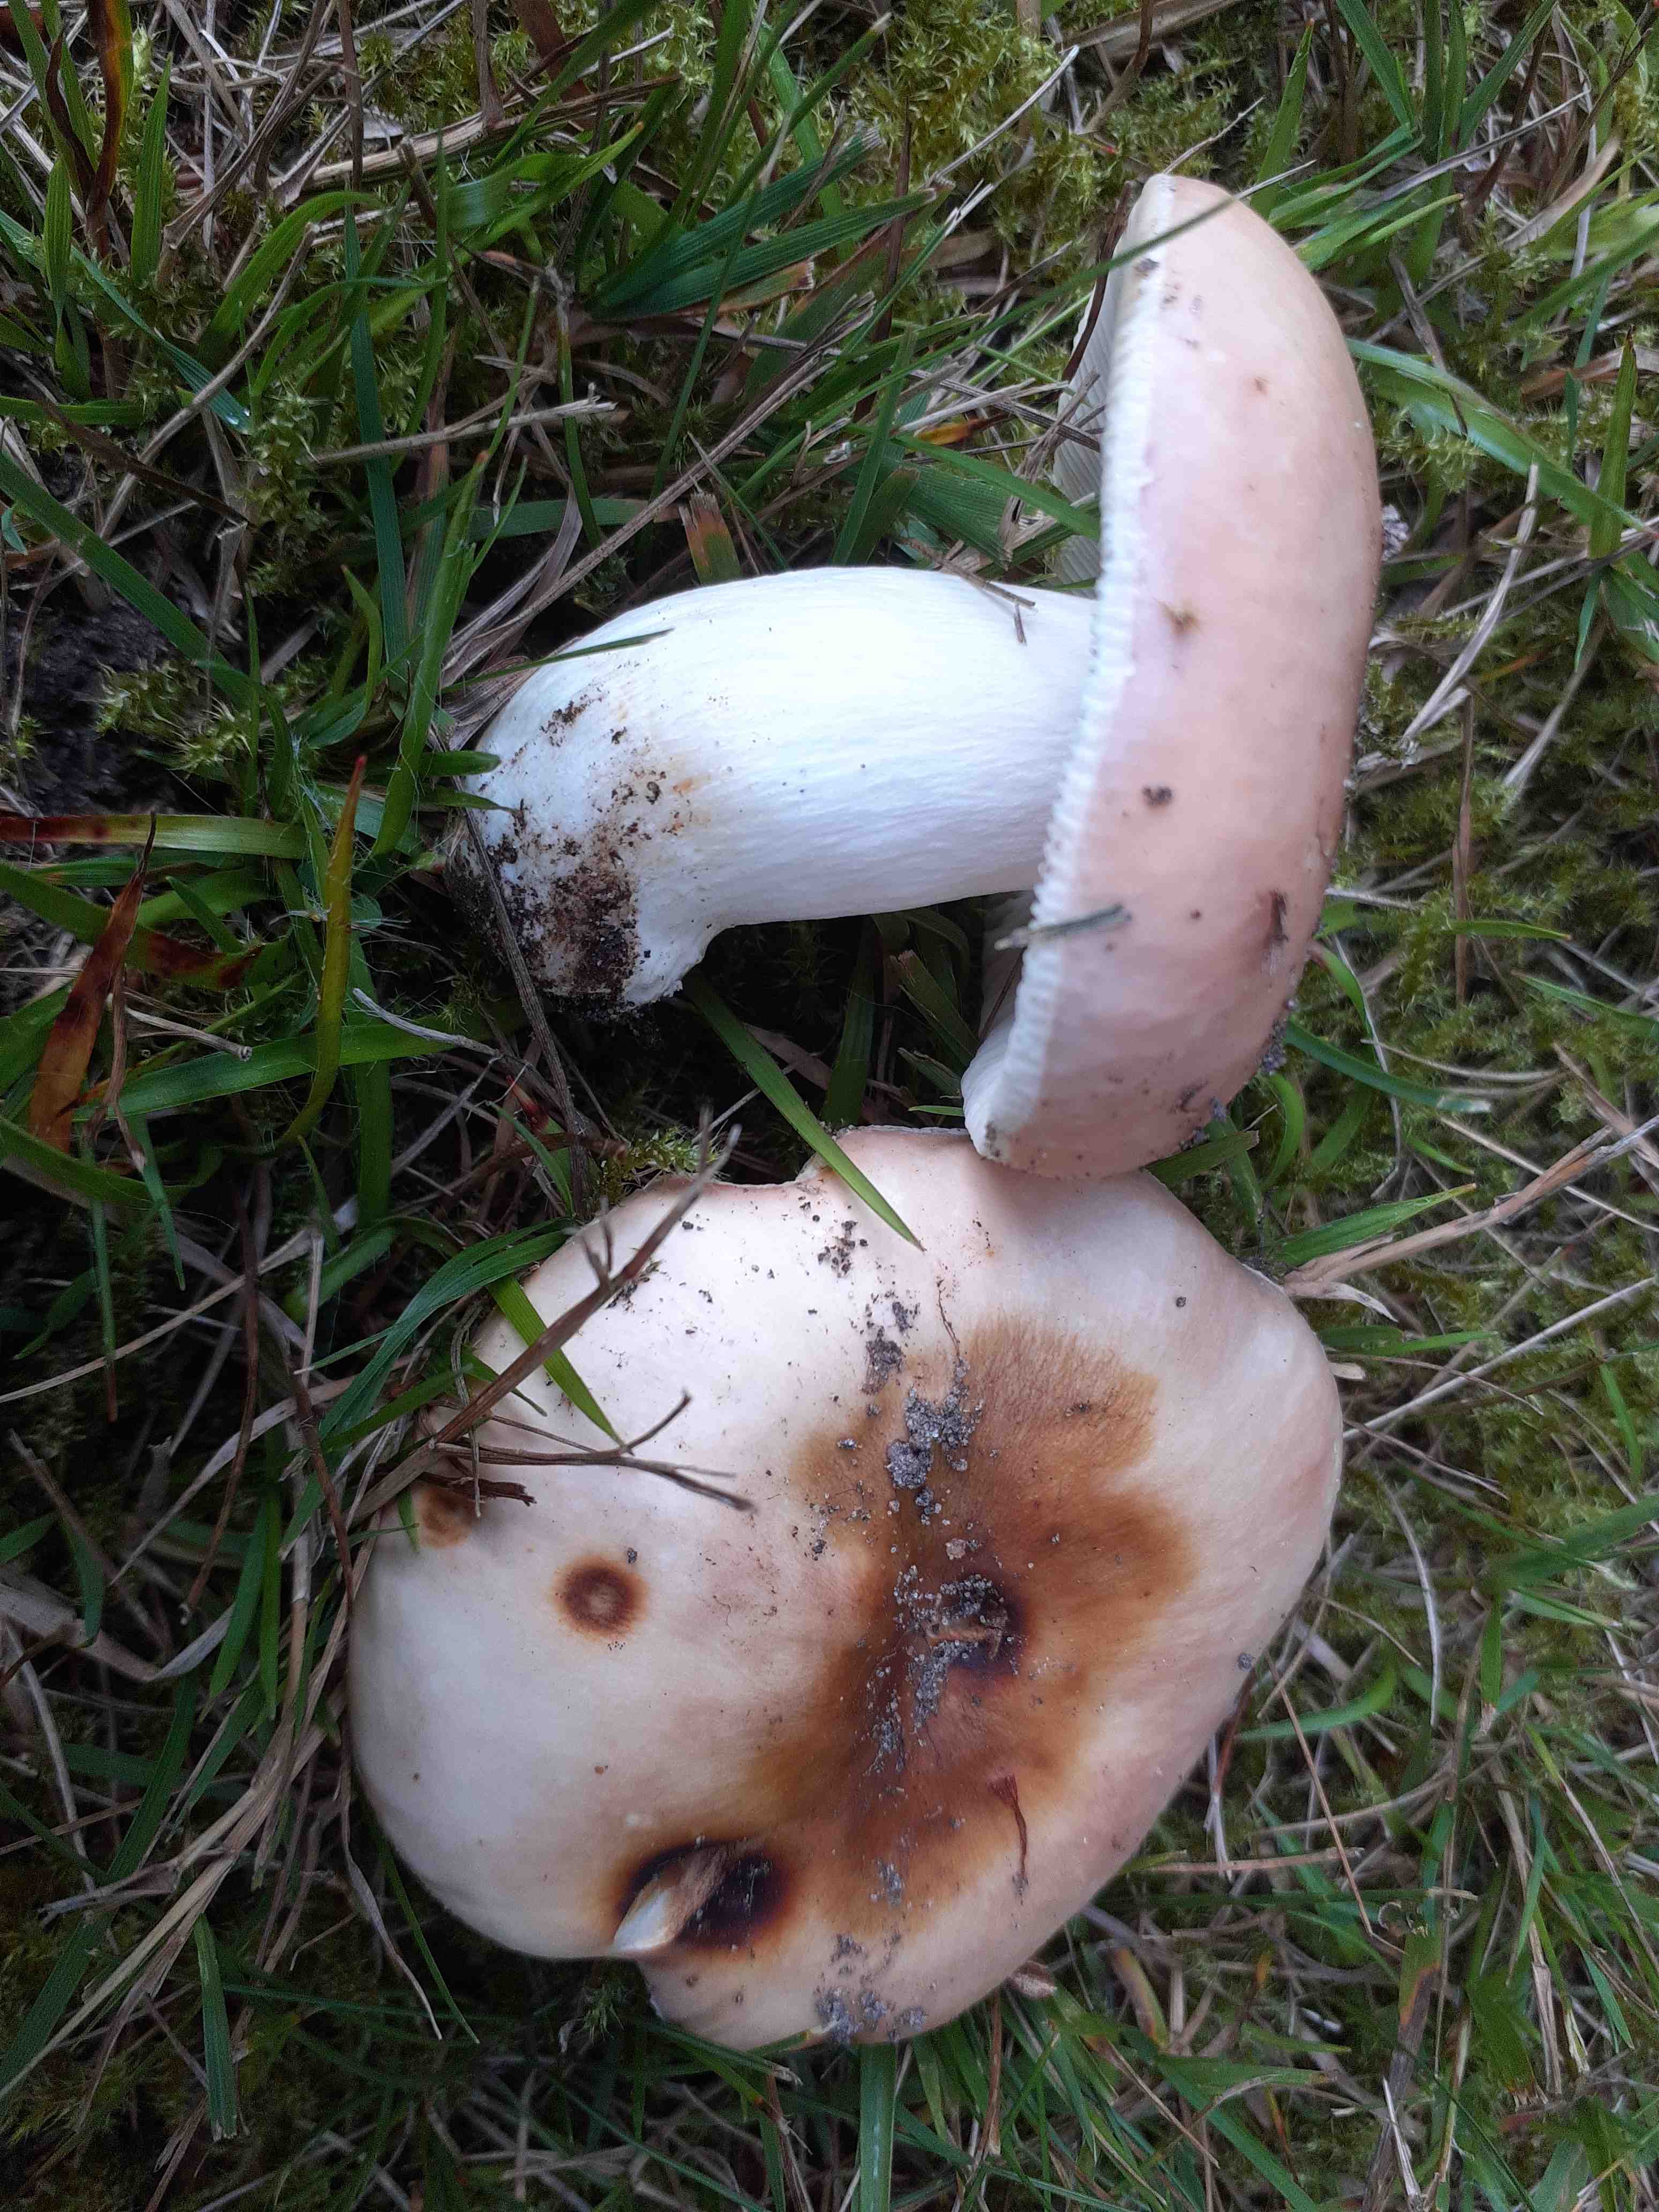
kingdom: Fungi
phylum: Basidiomycota
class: Agaricomycetes
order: Russulales
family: Russulaceae
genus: Russula
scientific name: Russula vesca
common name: spiselig skørhat
